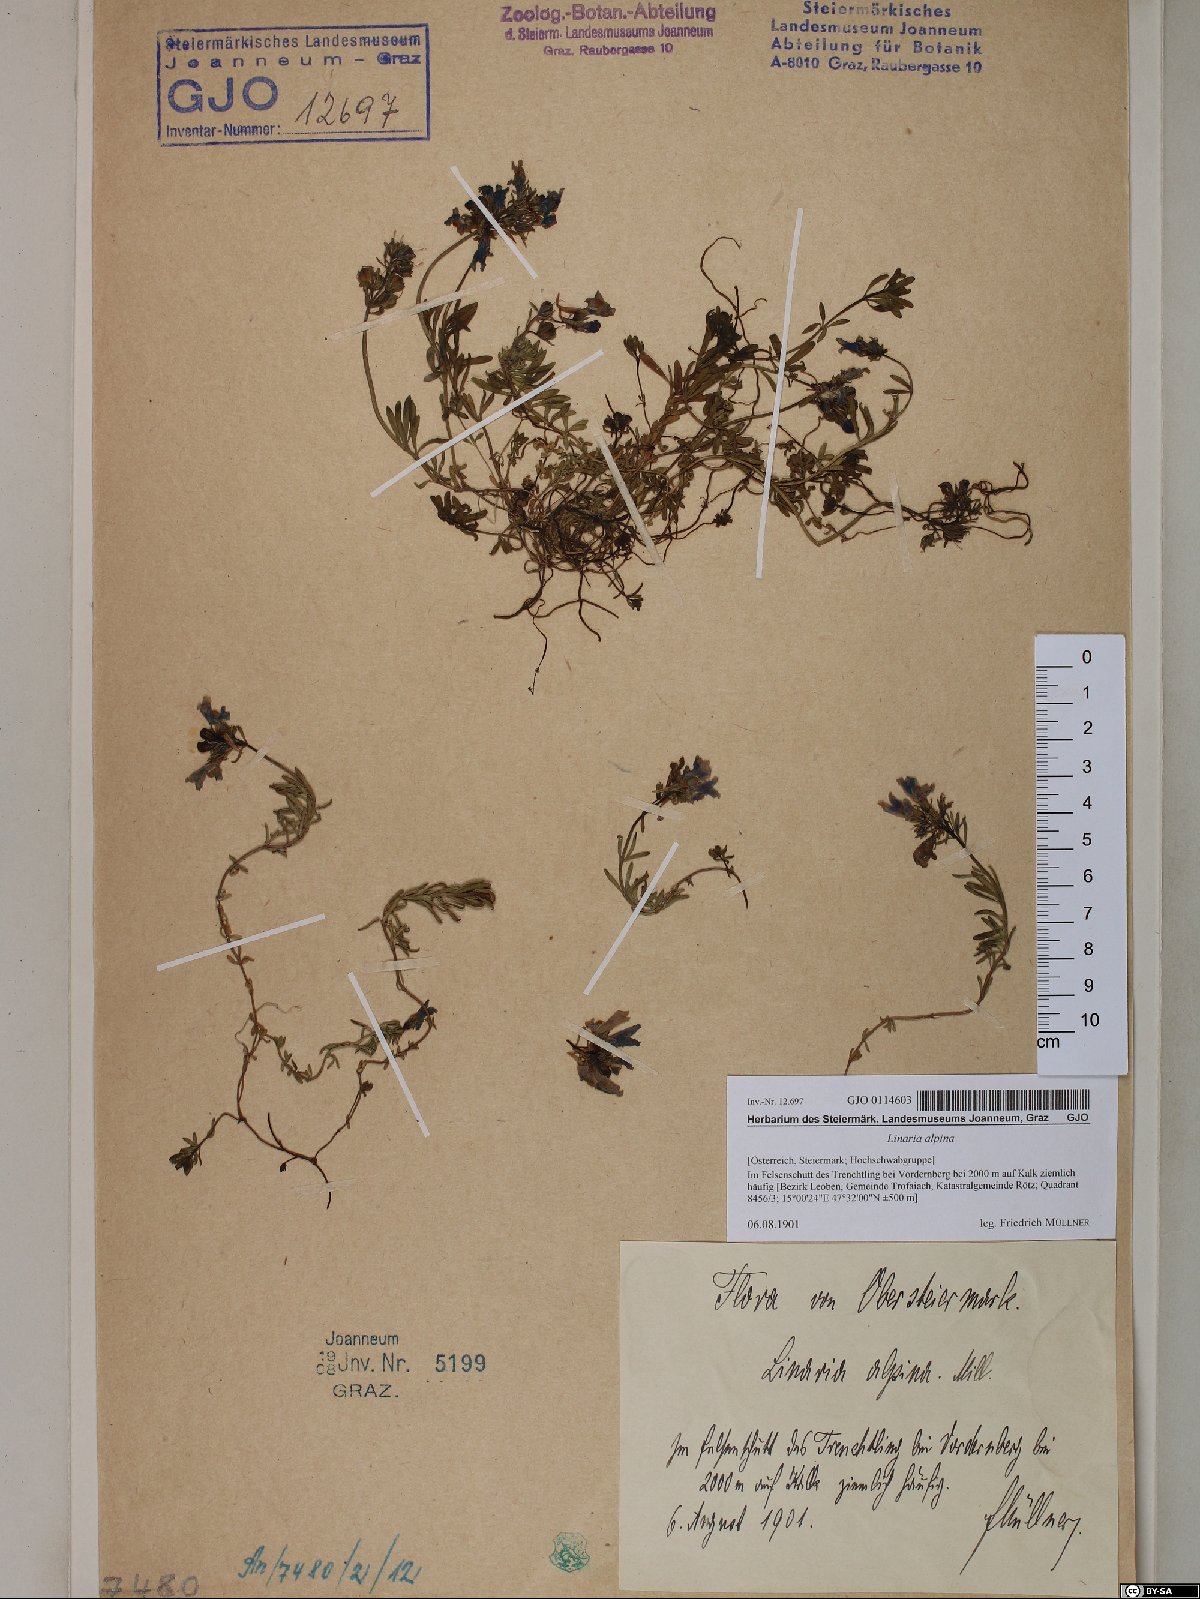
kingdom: Plantae
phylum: Tracheophyta
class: Magnoliopsida
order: Lamiales
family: Plantaginaceae
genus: Linaria
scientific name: Linaria alpina
